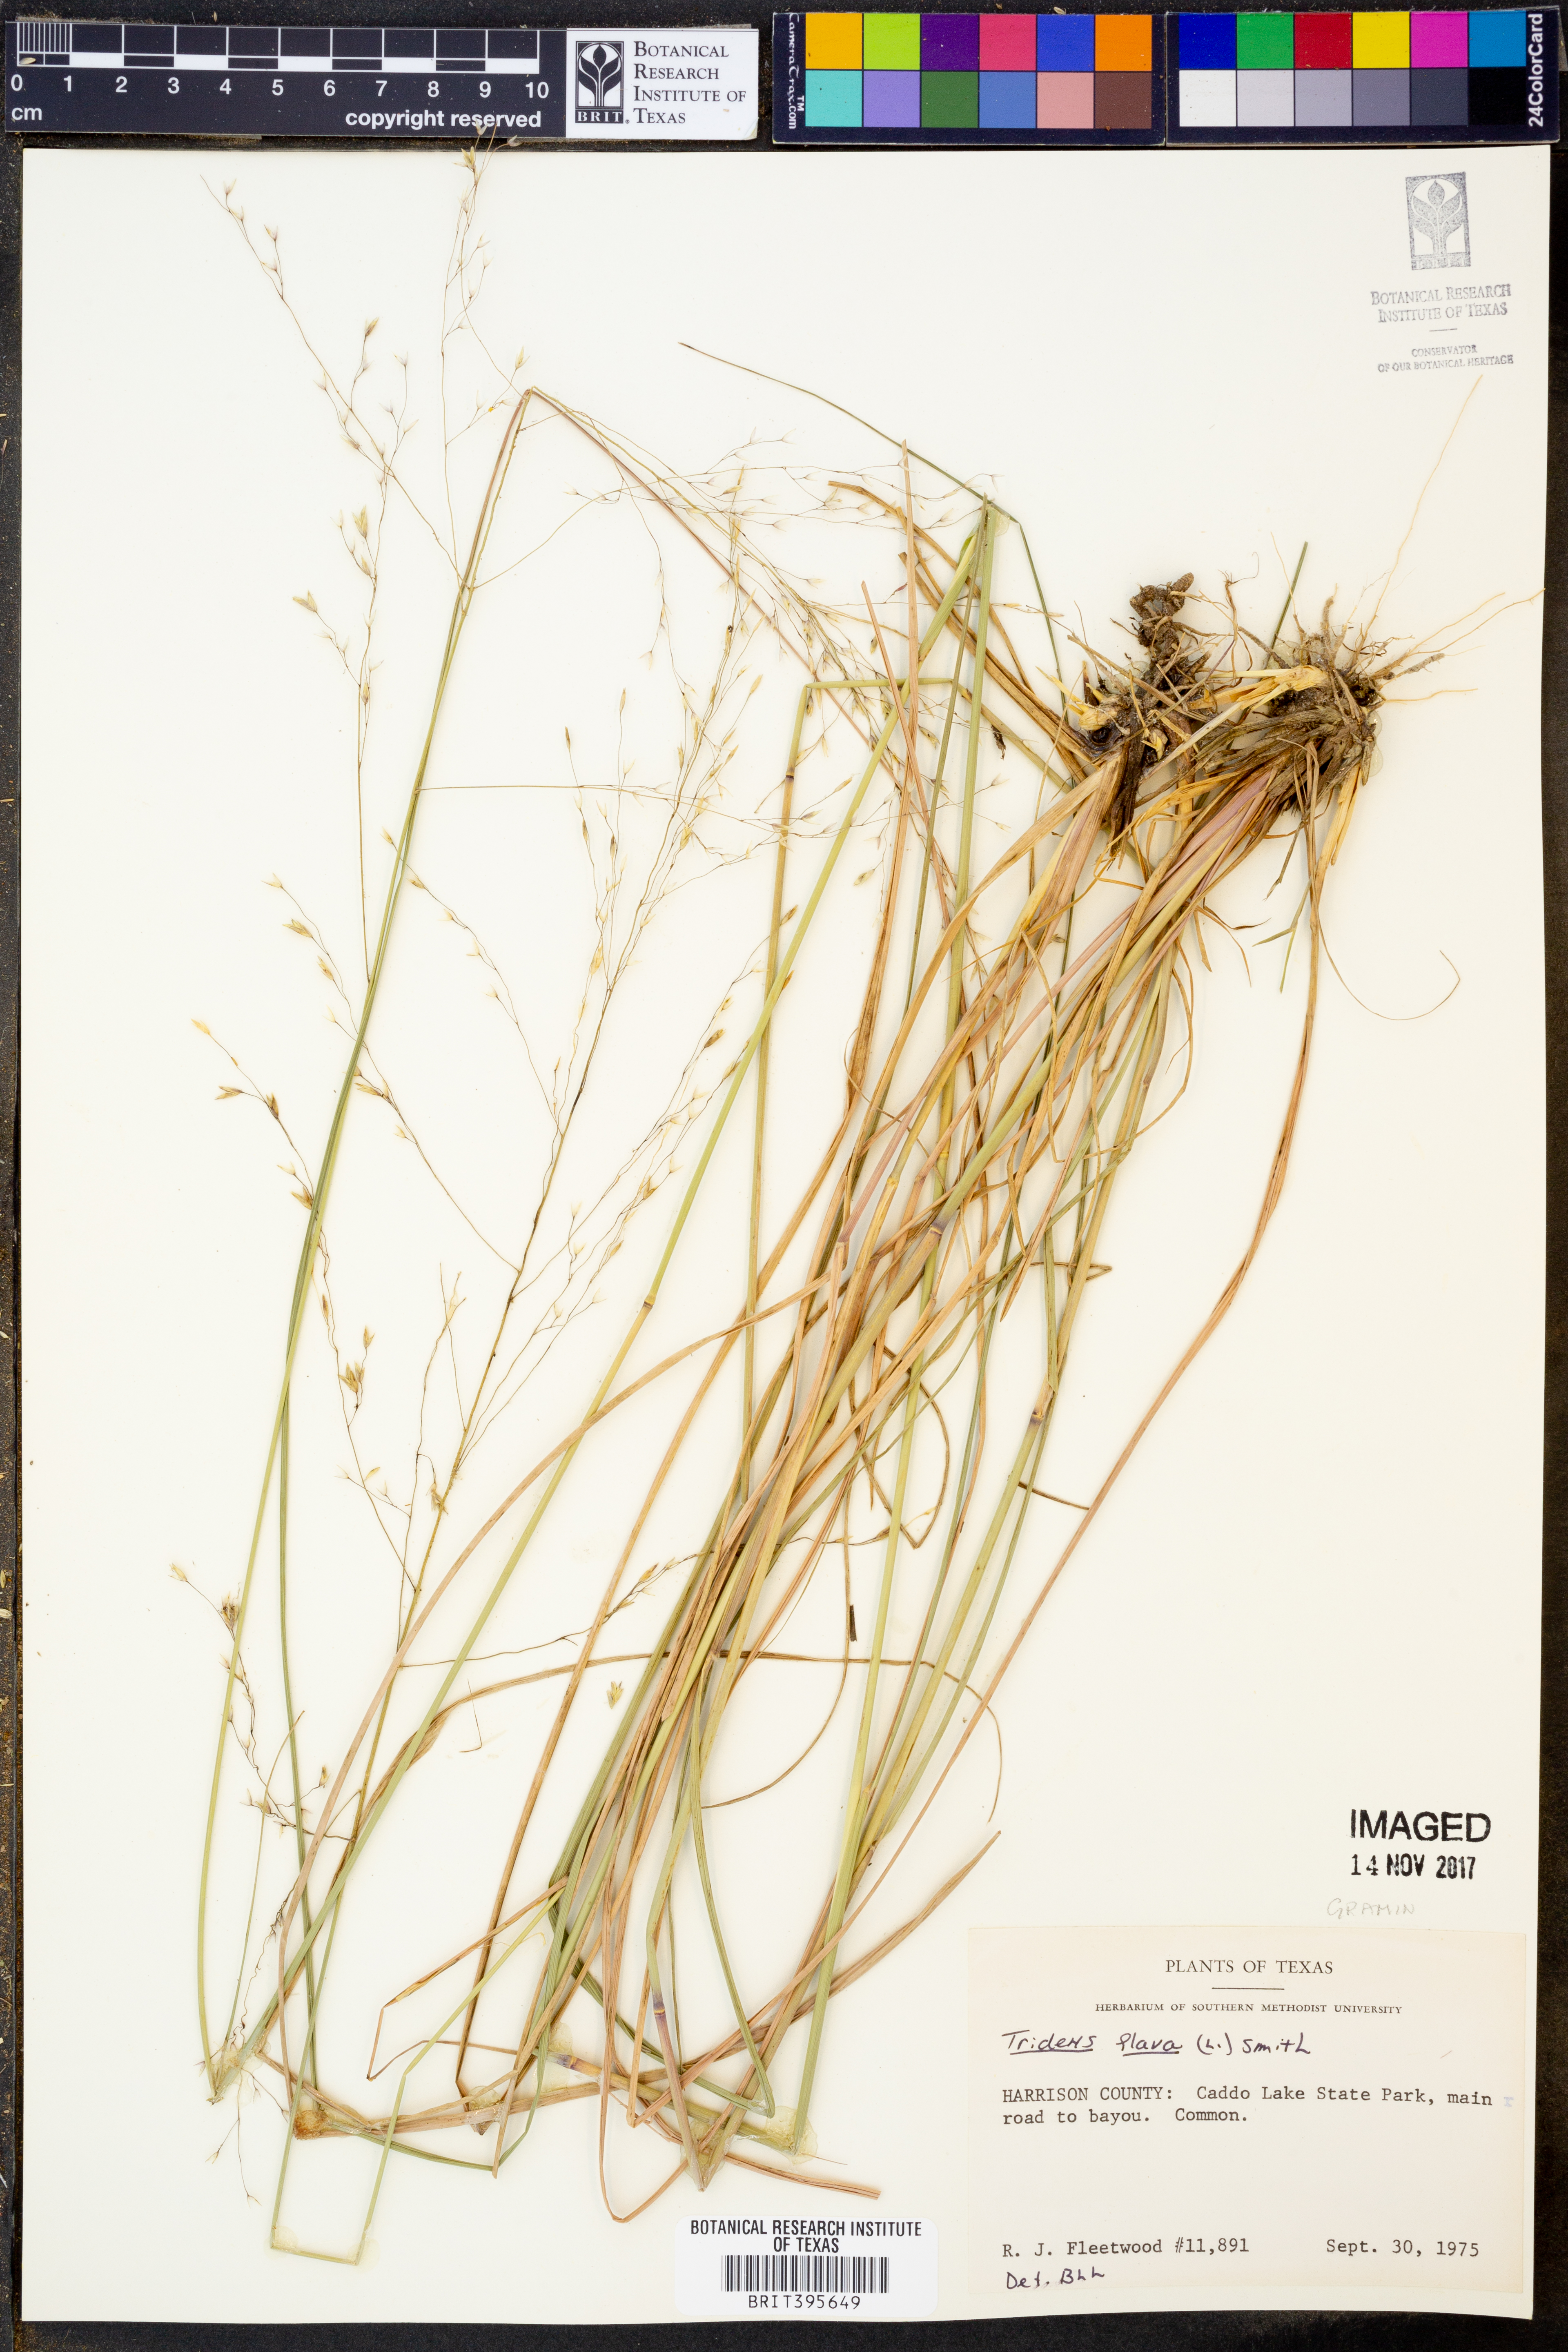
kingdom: Plantae
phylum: Tracheophyta
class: Liliopsida
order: Poales
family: Poaceae
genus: Tridens
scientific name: Tridens flavus
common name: Purpletop
